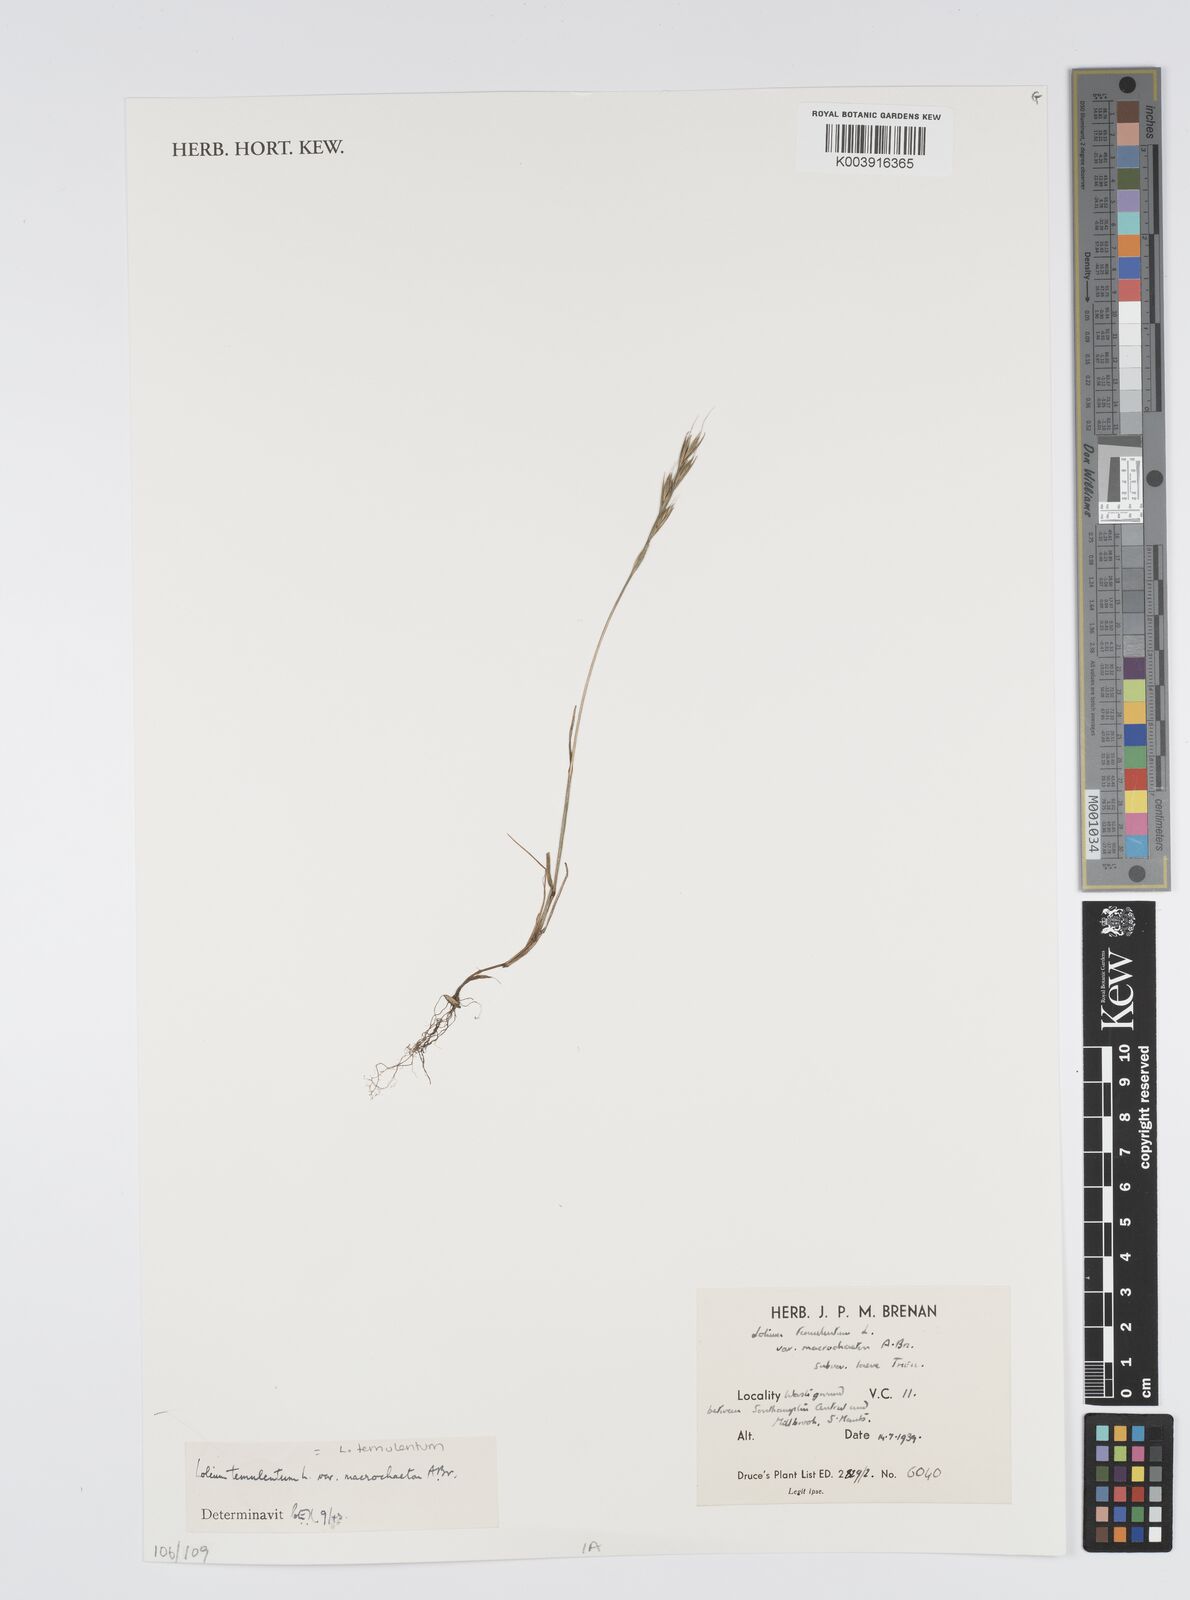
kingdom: Plantae
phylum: Tracheophyta
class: Liliopsida
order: Poales
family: Poaceae
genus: Lolium
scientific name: Lolium temulentum
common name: Darnel
